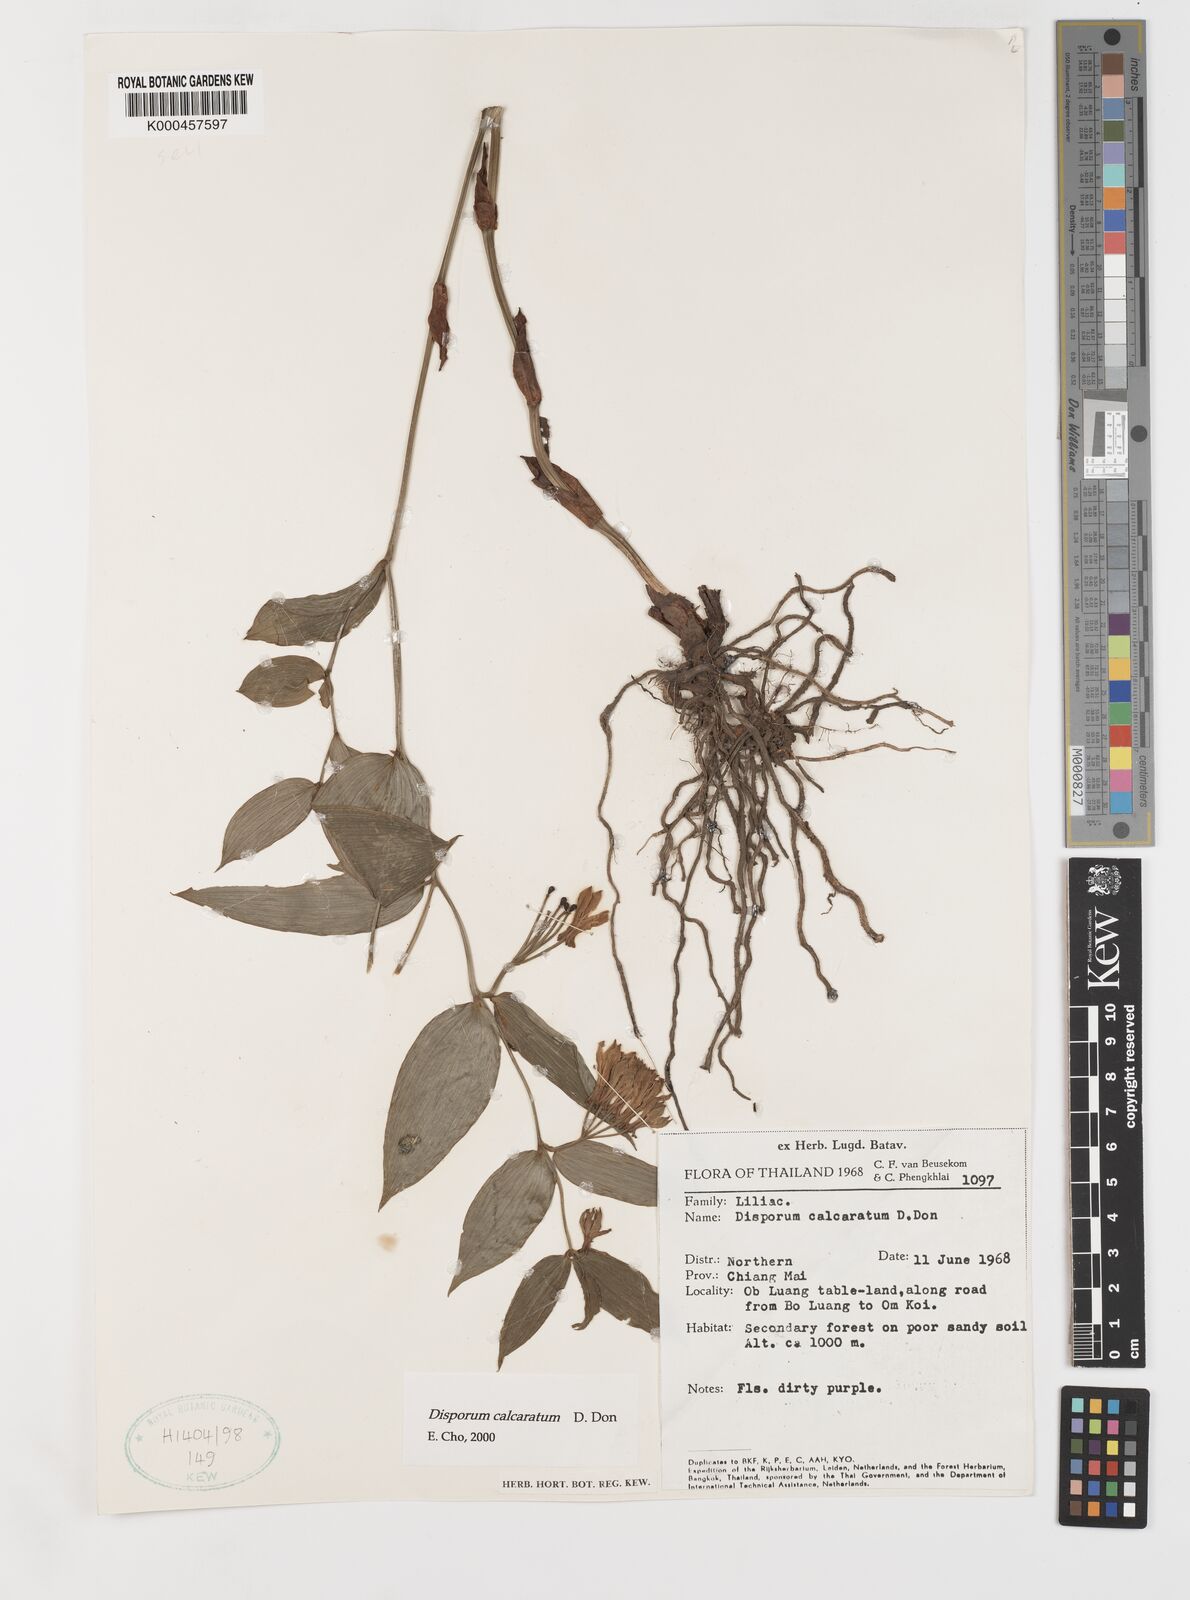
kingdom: Plantae
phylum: Tracheophyta
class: Liliopsida
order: Liliales
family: Colchicaceae
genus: Disporum
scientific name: Disporum calcaratum
